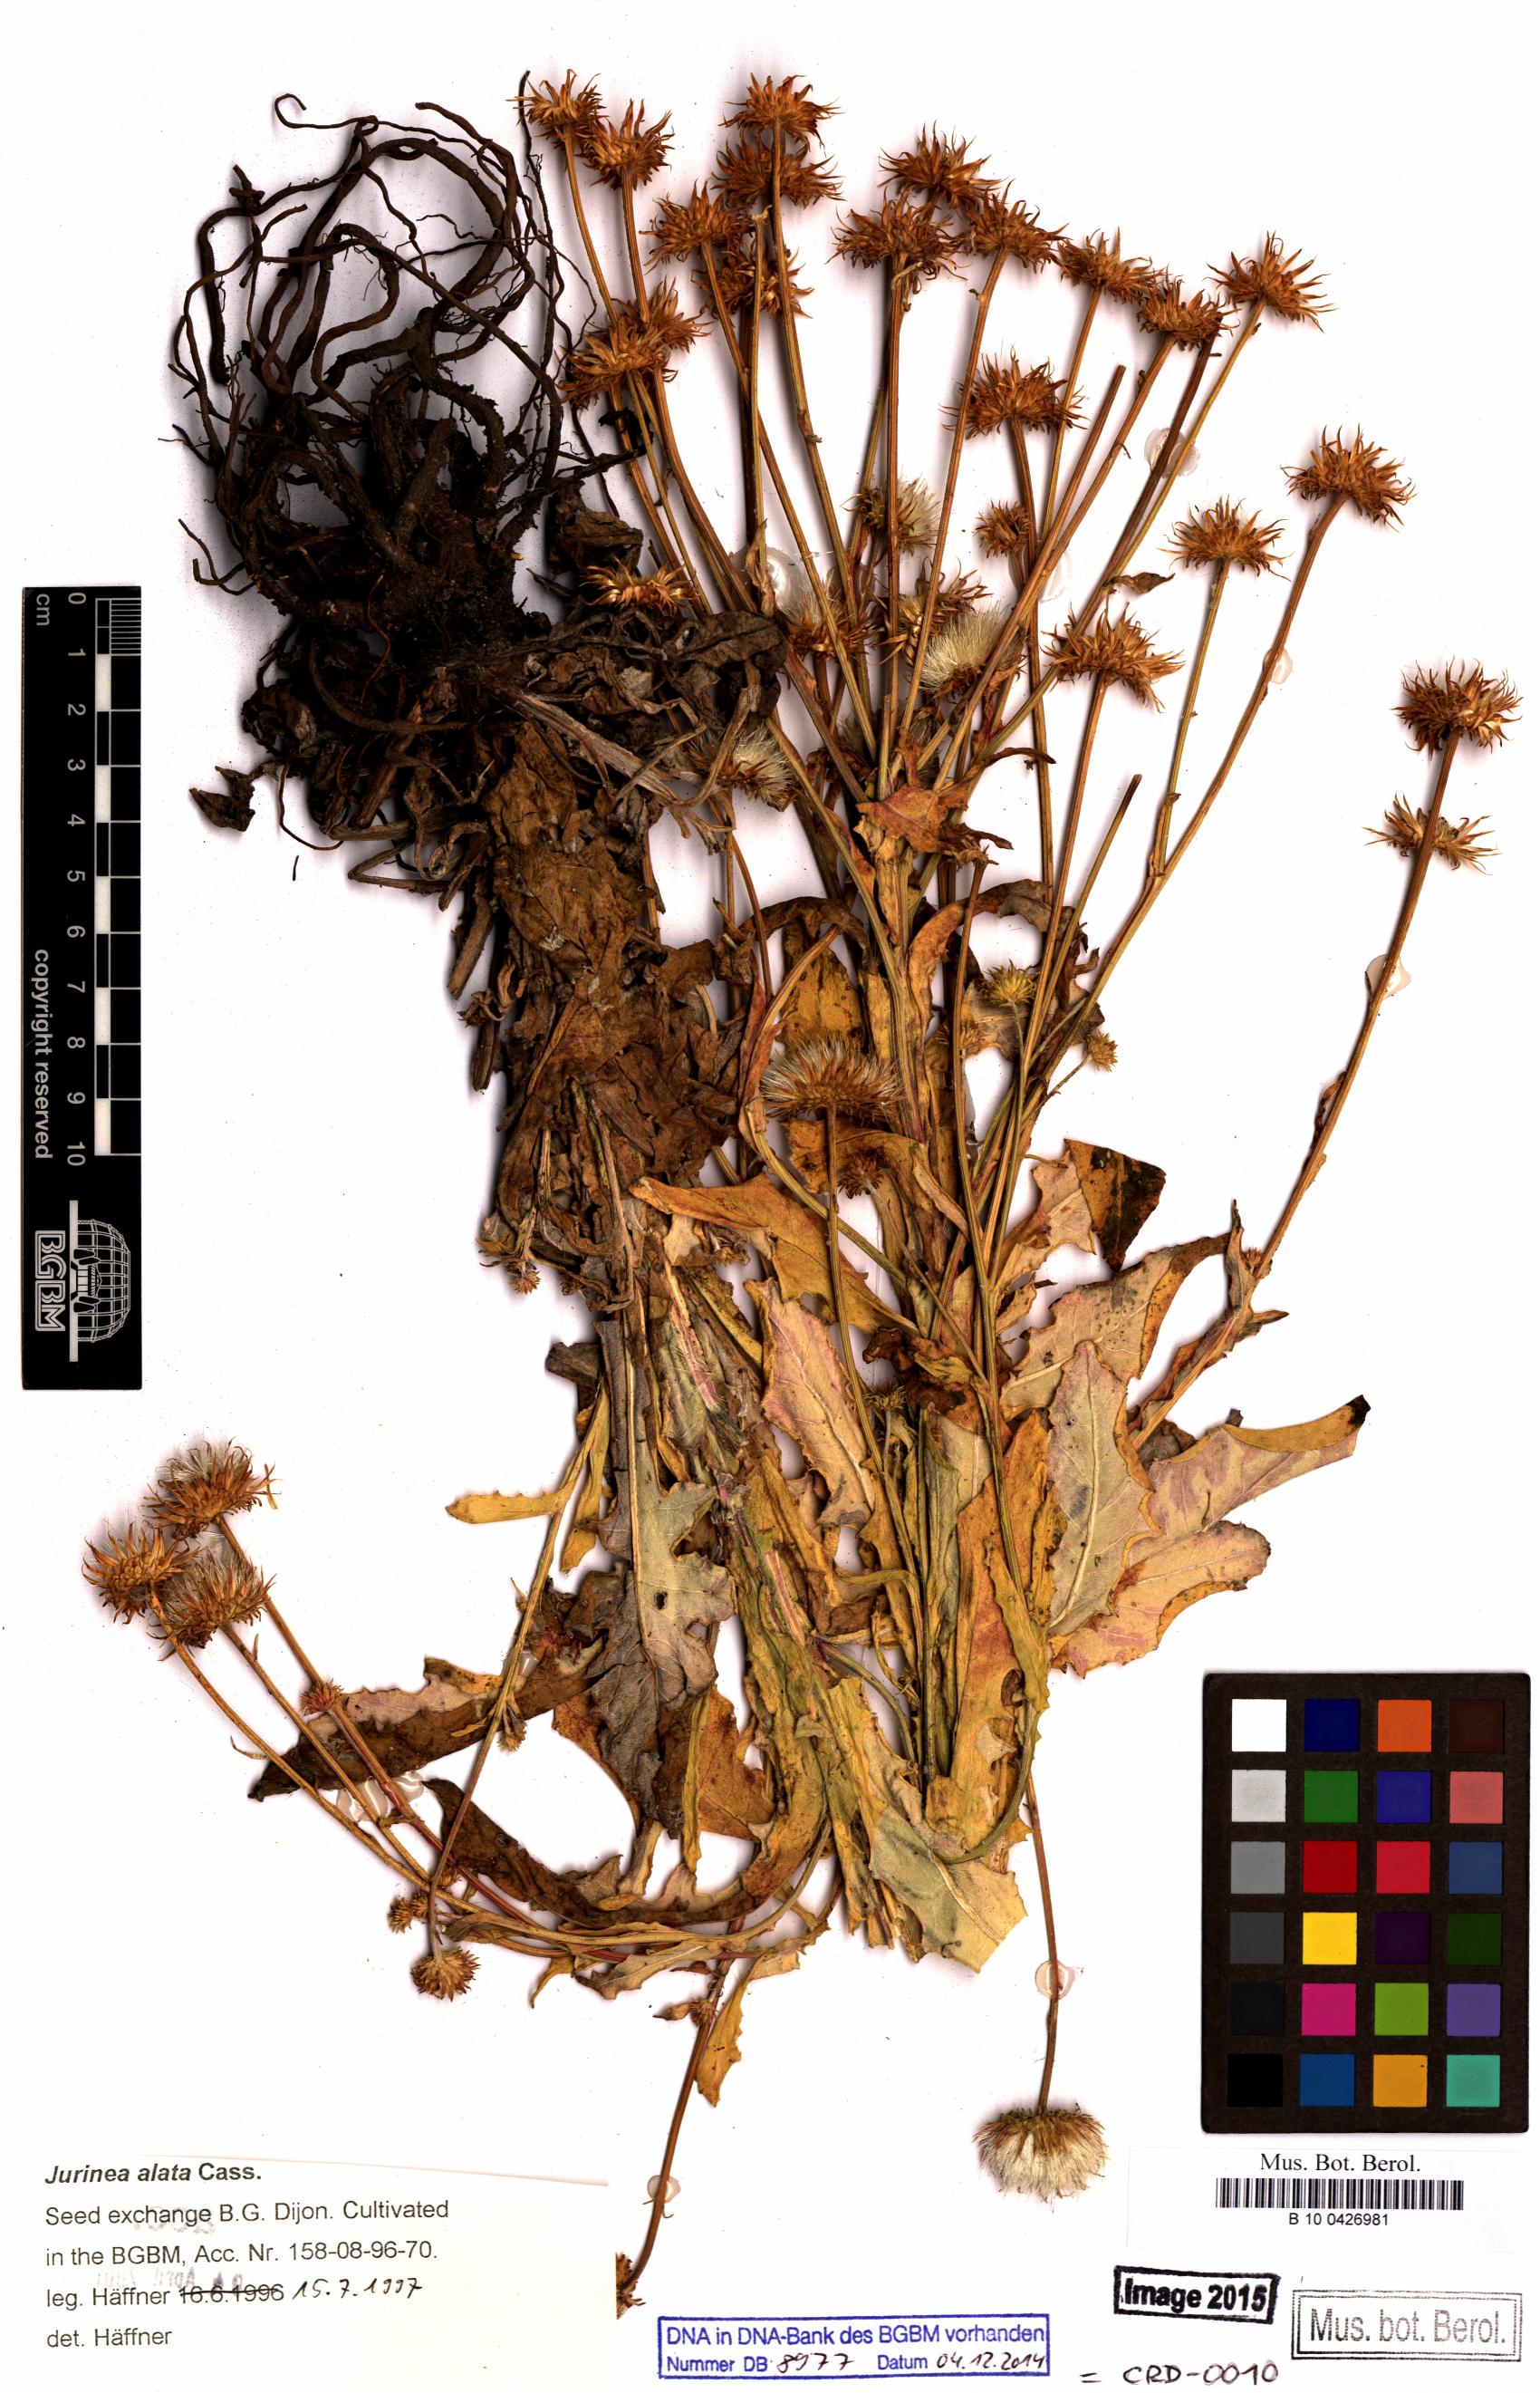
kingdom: Plantae
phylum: Tracheophyta
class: Magnoliopsida
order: Asterales
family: Asteraceae
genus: Jurinea
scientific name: Jurinea alata
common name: Winged jurinea
